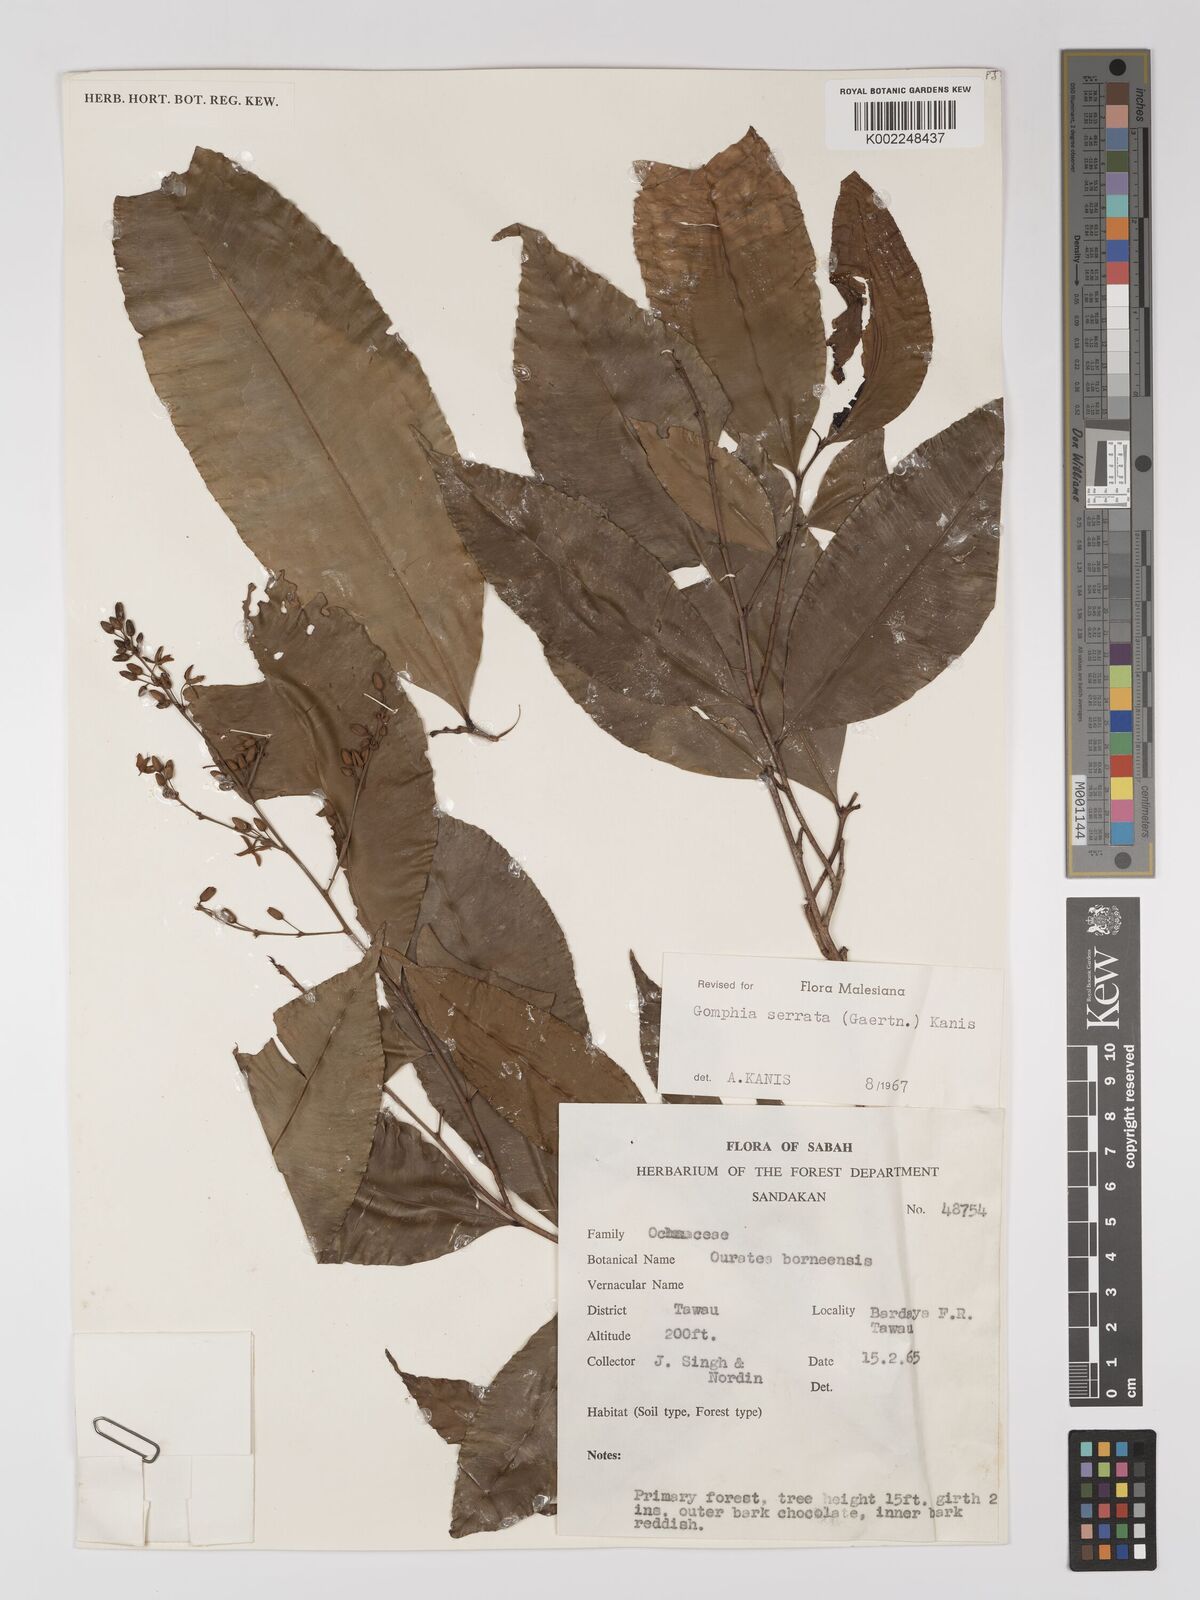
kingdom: Plantae
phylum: Tracheophyta
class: Magnoliopsida
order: Malpighiales
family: Ochnaceae
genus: Gomphia
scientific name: Gomphia serrata
